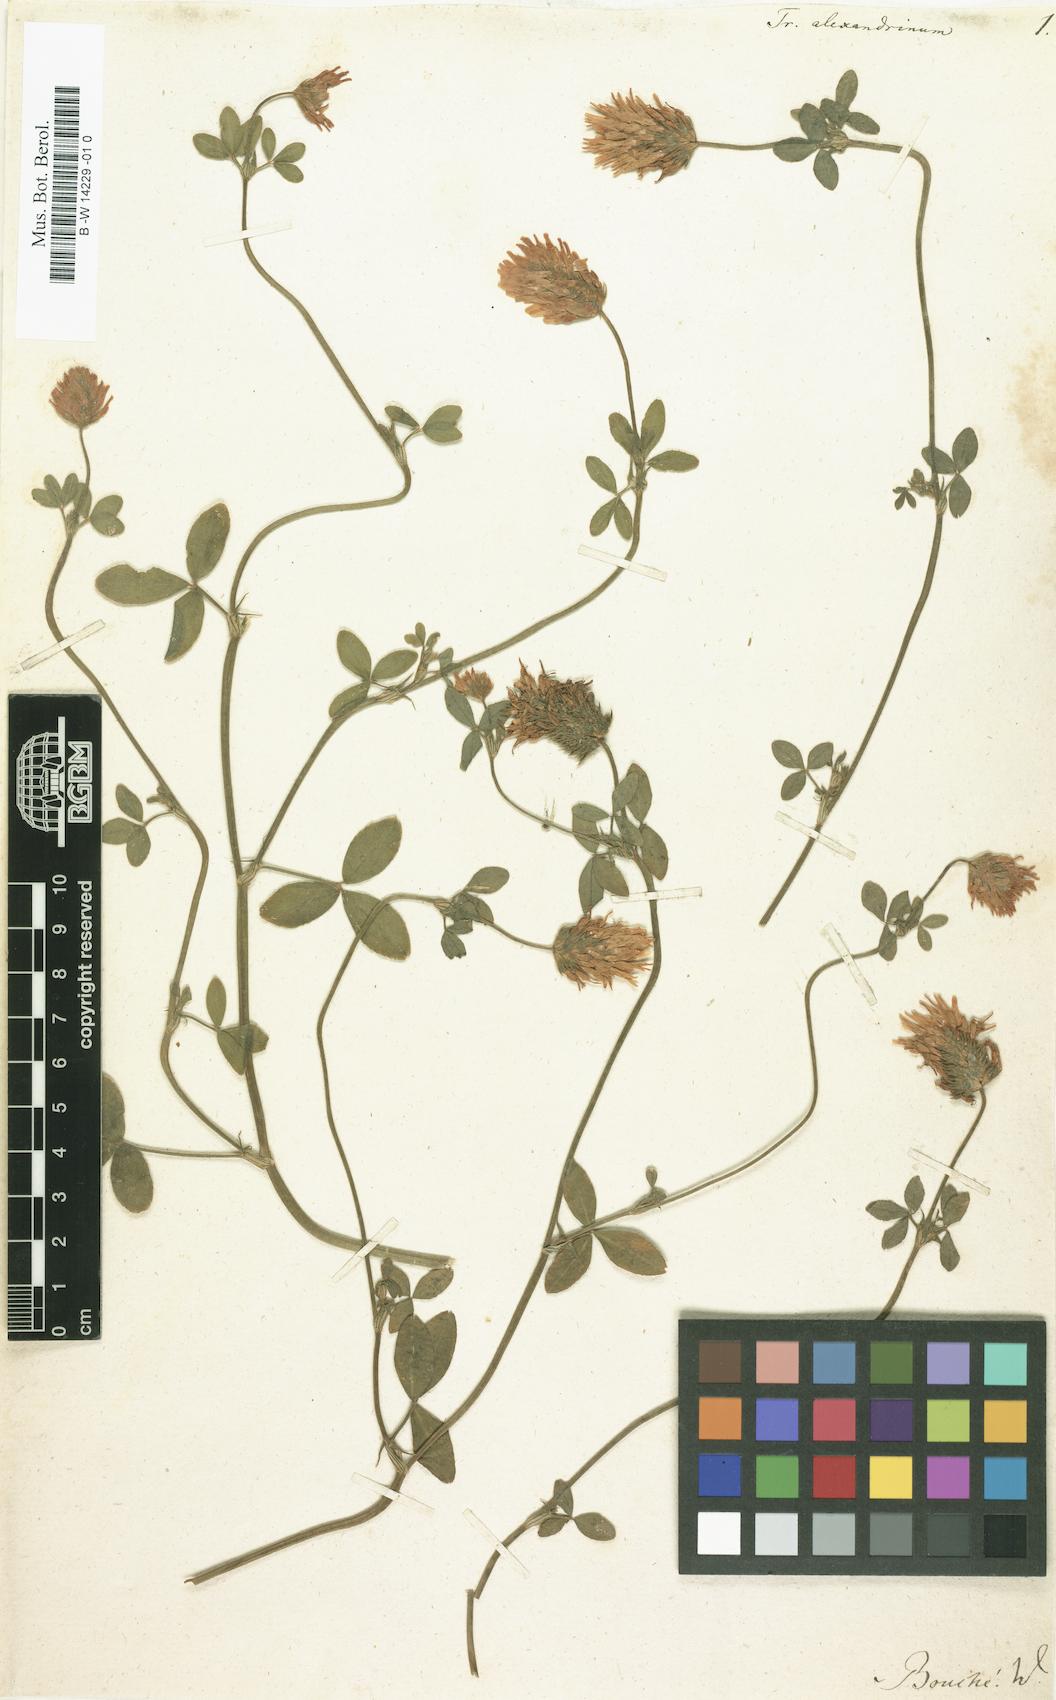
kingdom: Plantae
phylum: Tracheophyta
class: Magnoliopsida
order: Fabales
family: Fabaceae
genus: Trifolium
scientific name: Trifolium alexandrinum
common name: Egyptian clover
